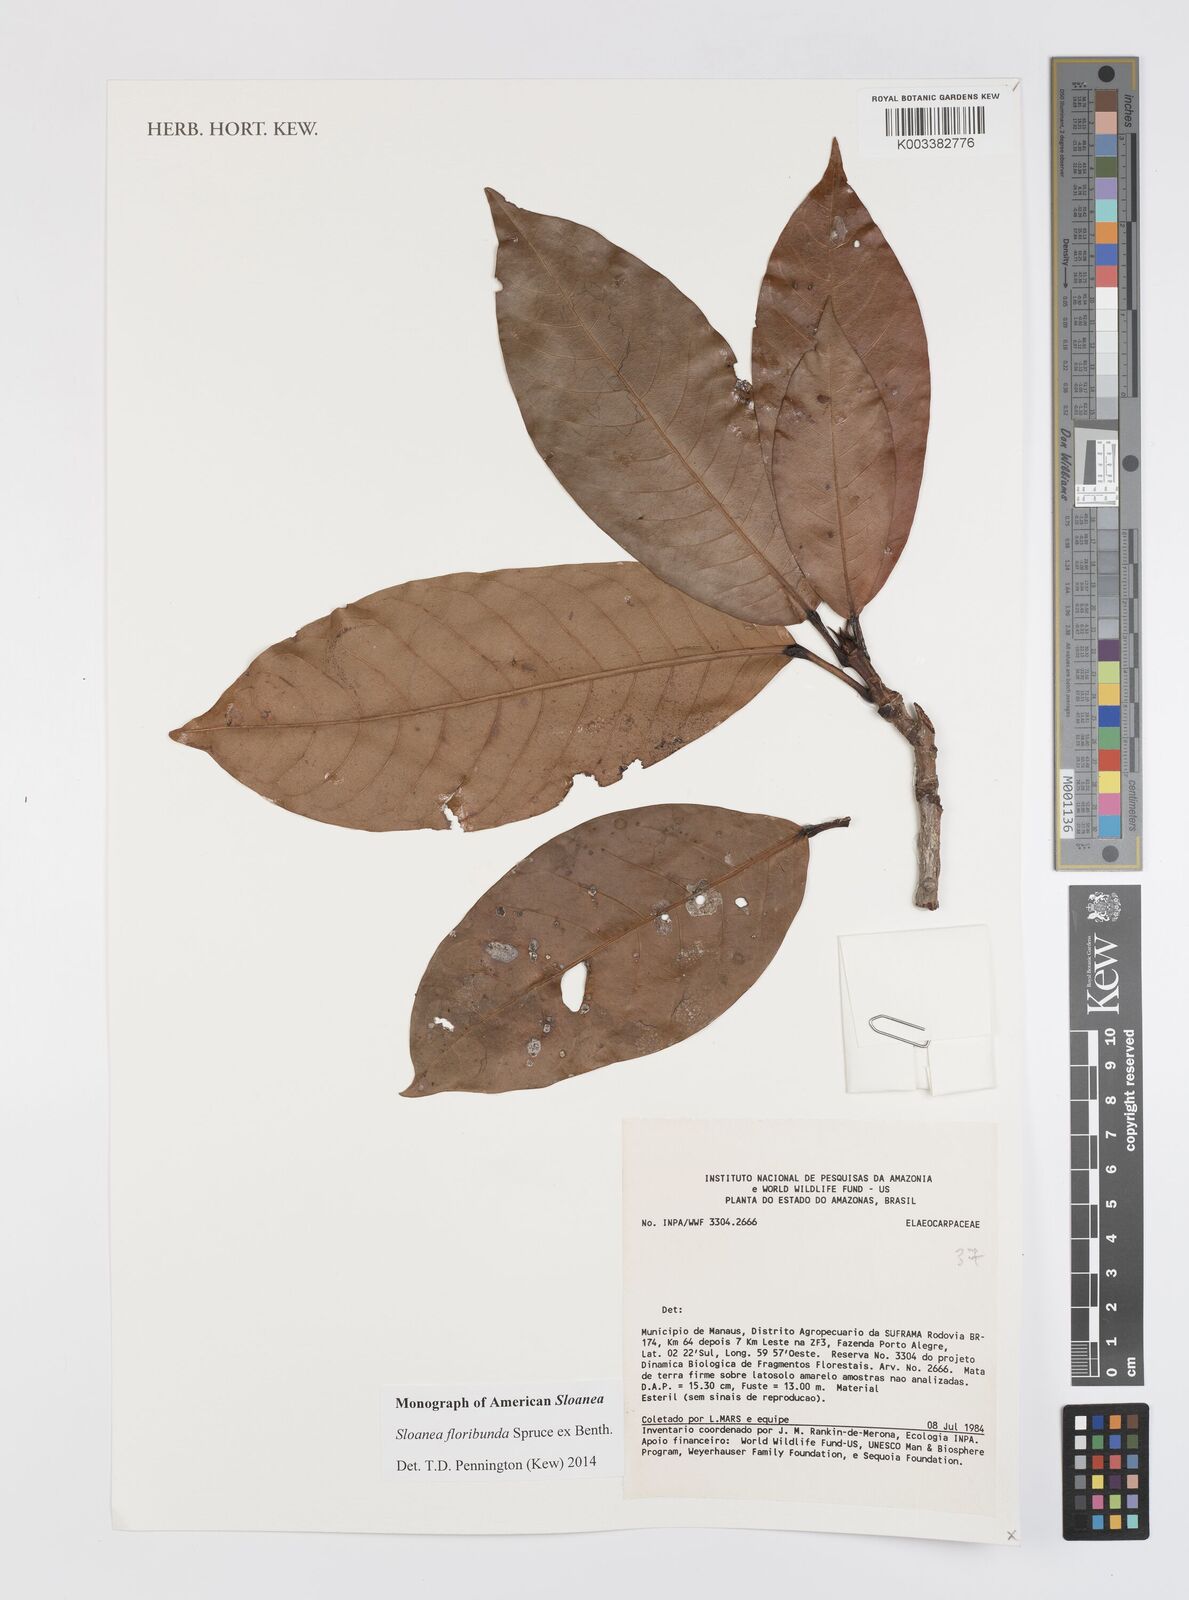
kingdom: Plantae
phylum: Tracheophyta
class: Magnoliopsida
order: Oxalidales
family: Elaeocarpaceae
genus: Sloanea
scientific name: Sloanea floribunda
